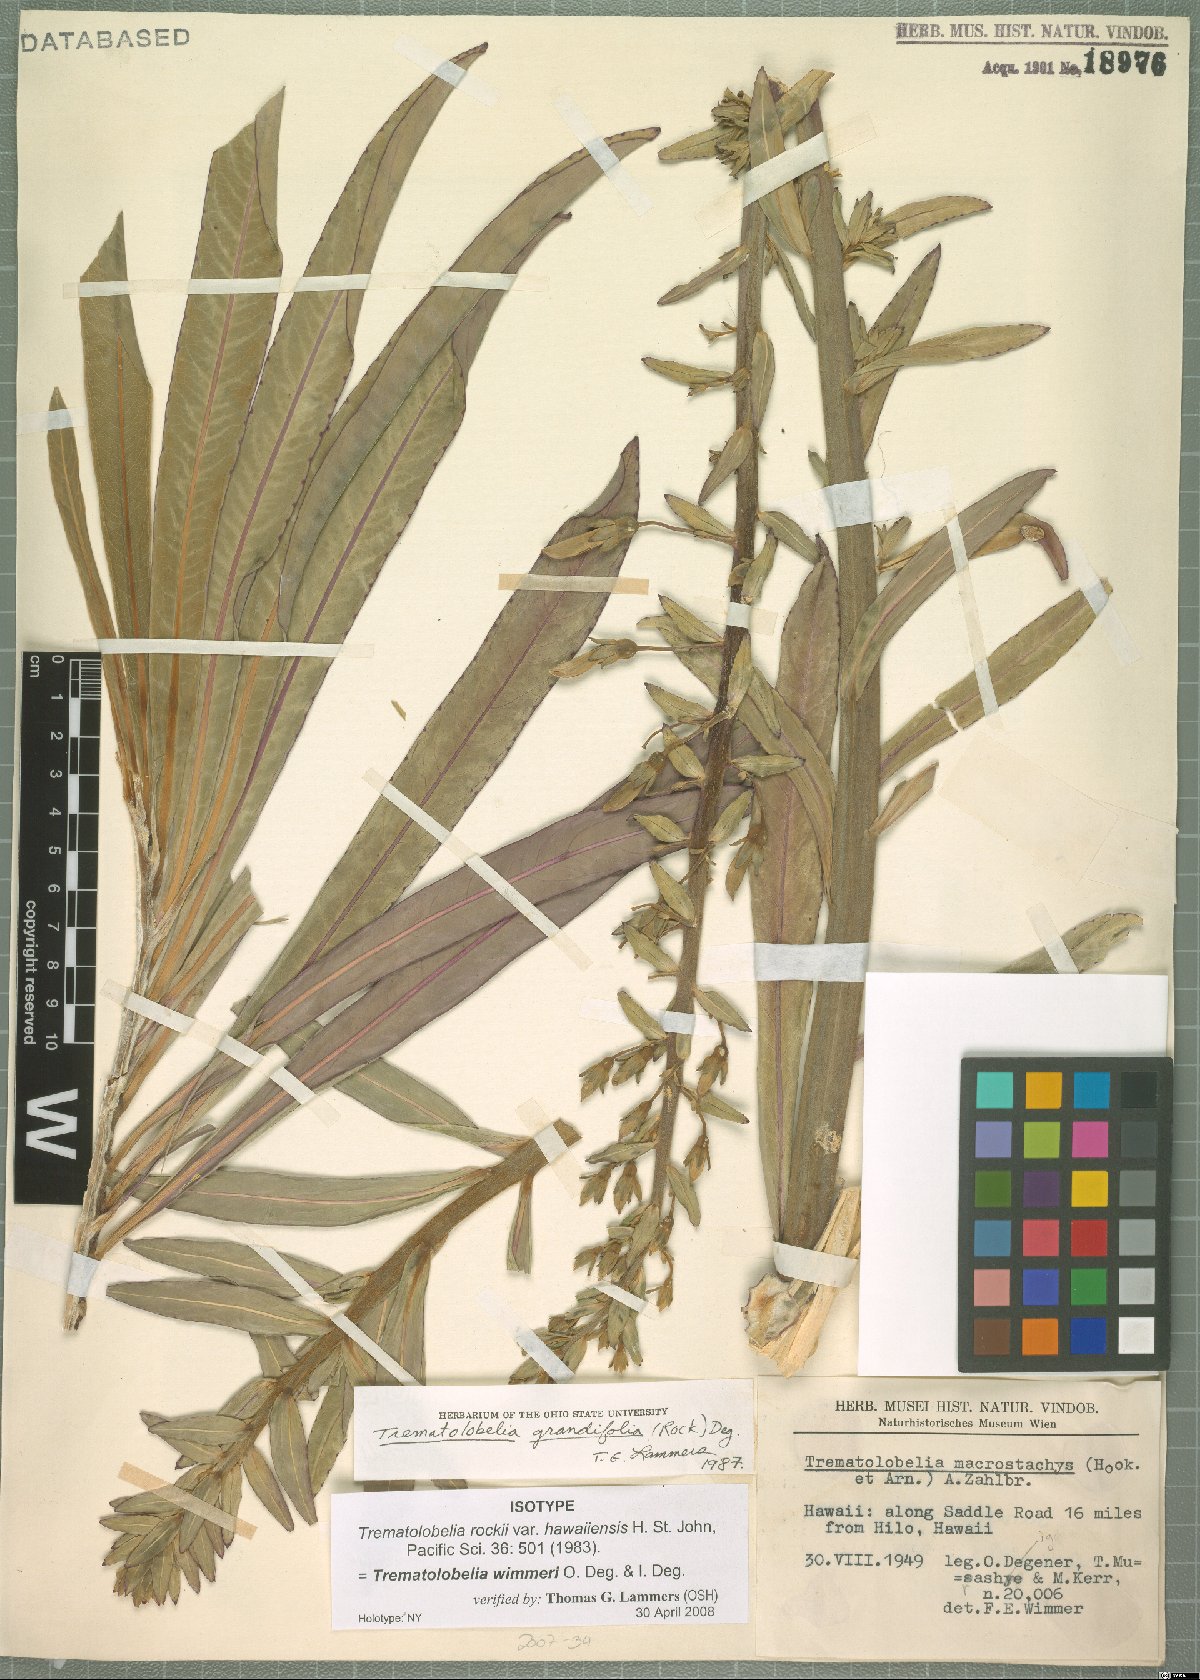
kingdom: Plantae
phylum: Tracheophyta
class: Magnoliopsida
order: Asterales
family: Campanulaceae
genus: Trematolobelia
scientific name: Trematolobelia wimmeri
